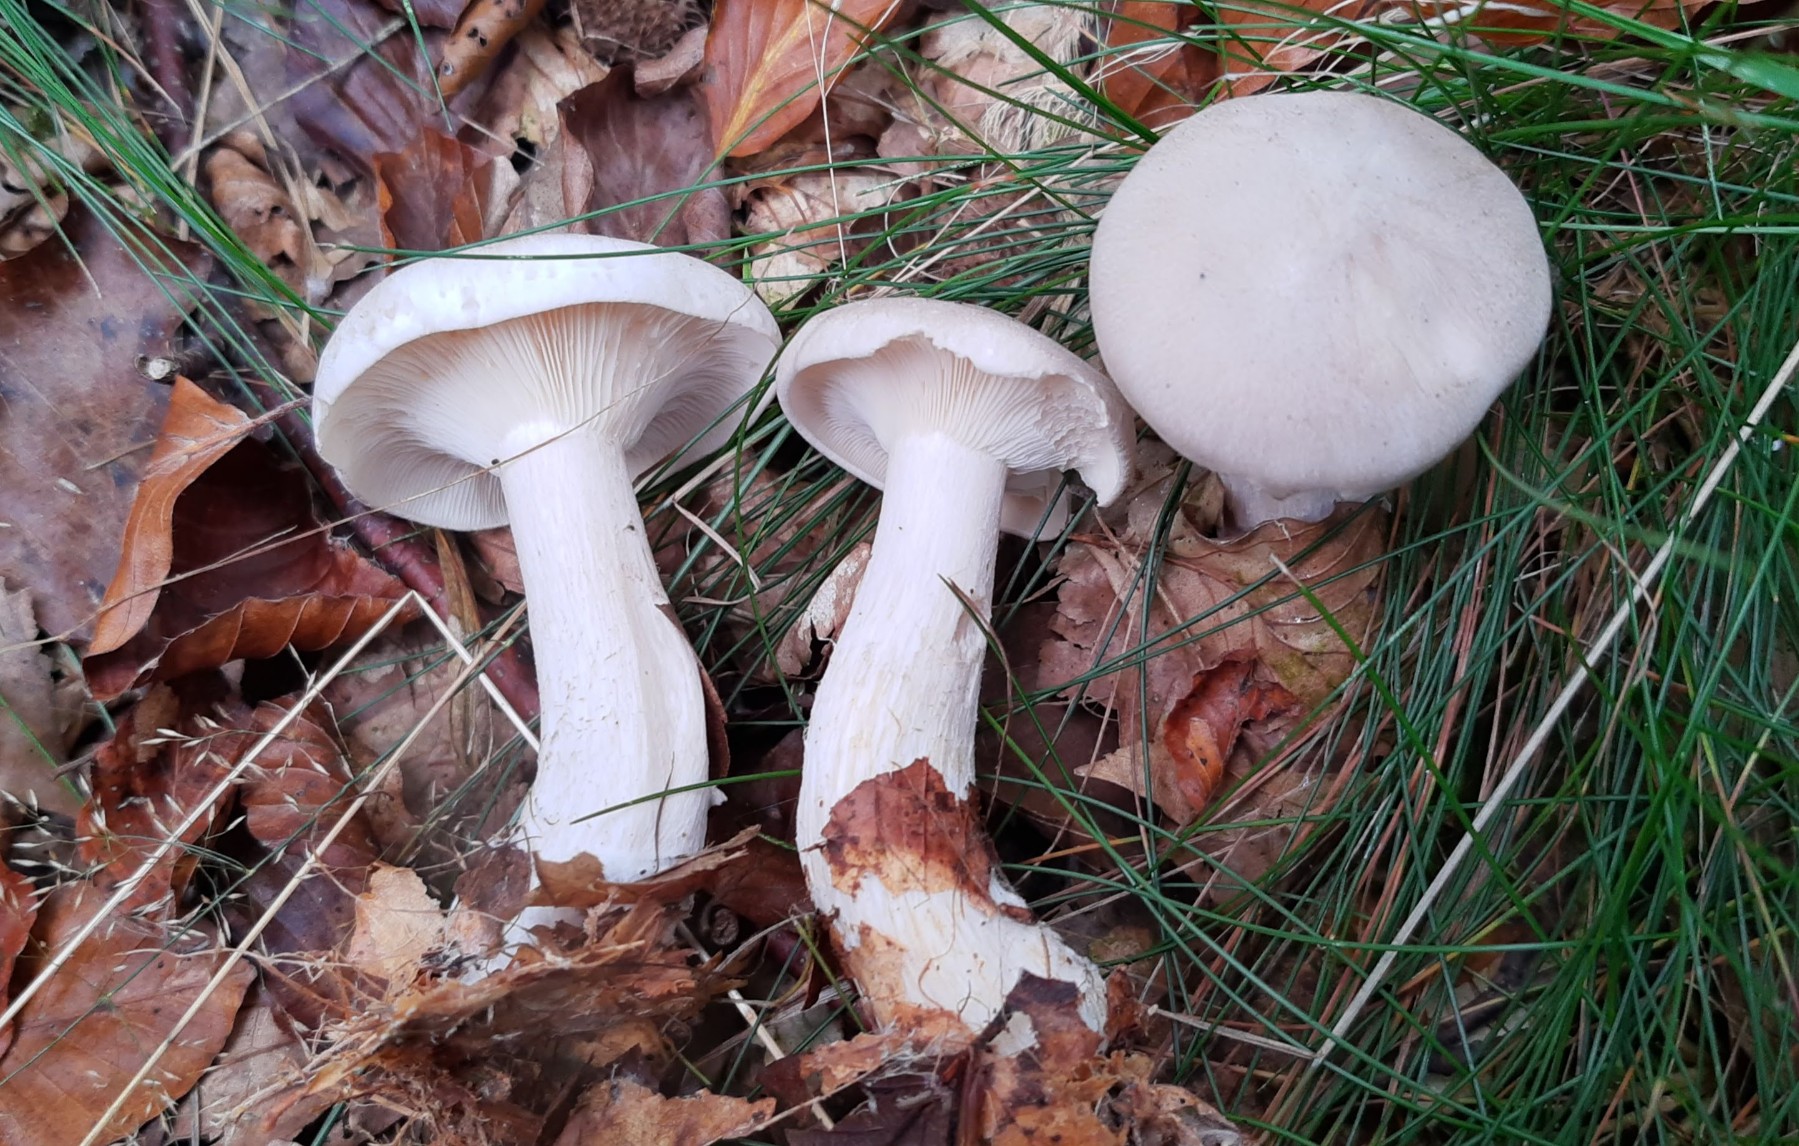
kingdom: Fungi
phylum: Basidiomycota
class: Agaricomycetes
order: Agaricales
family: Tricholomataceae
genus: Clitocybe
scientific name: Clitocybe nebularis
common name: tåge-tragthat
